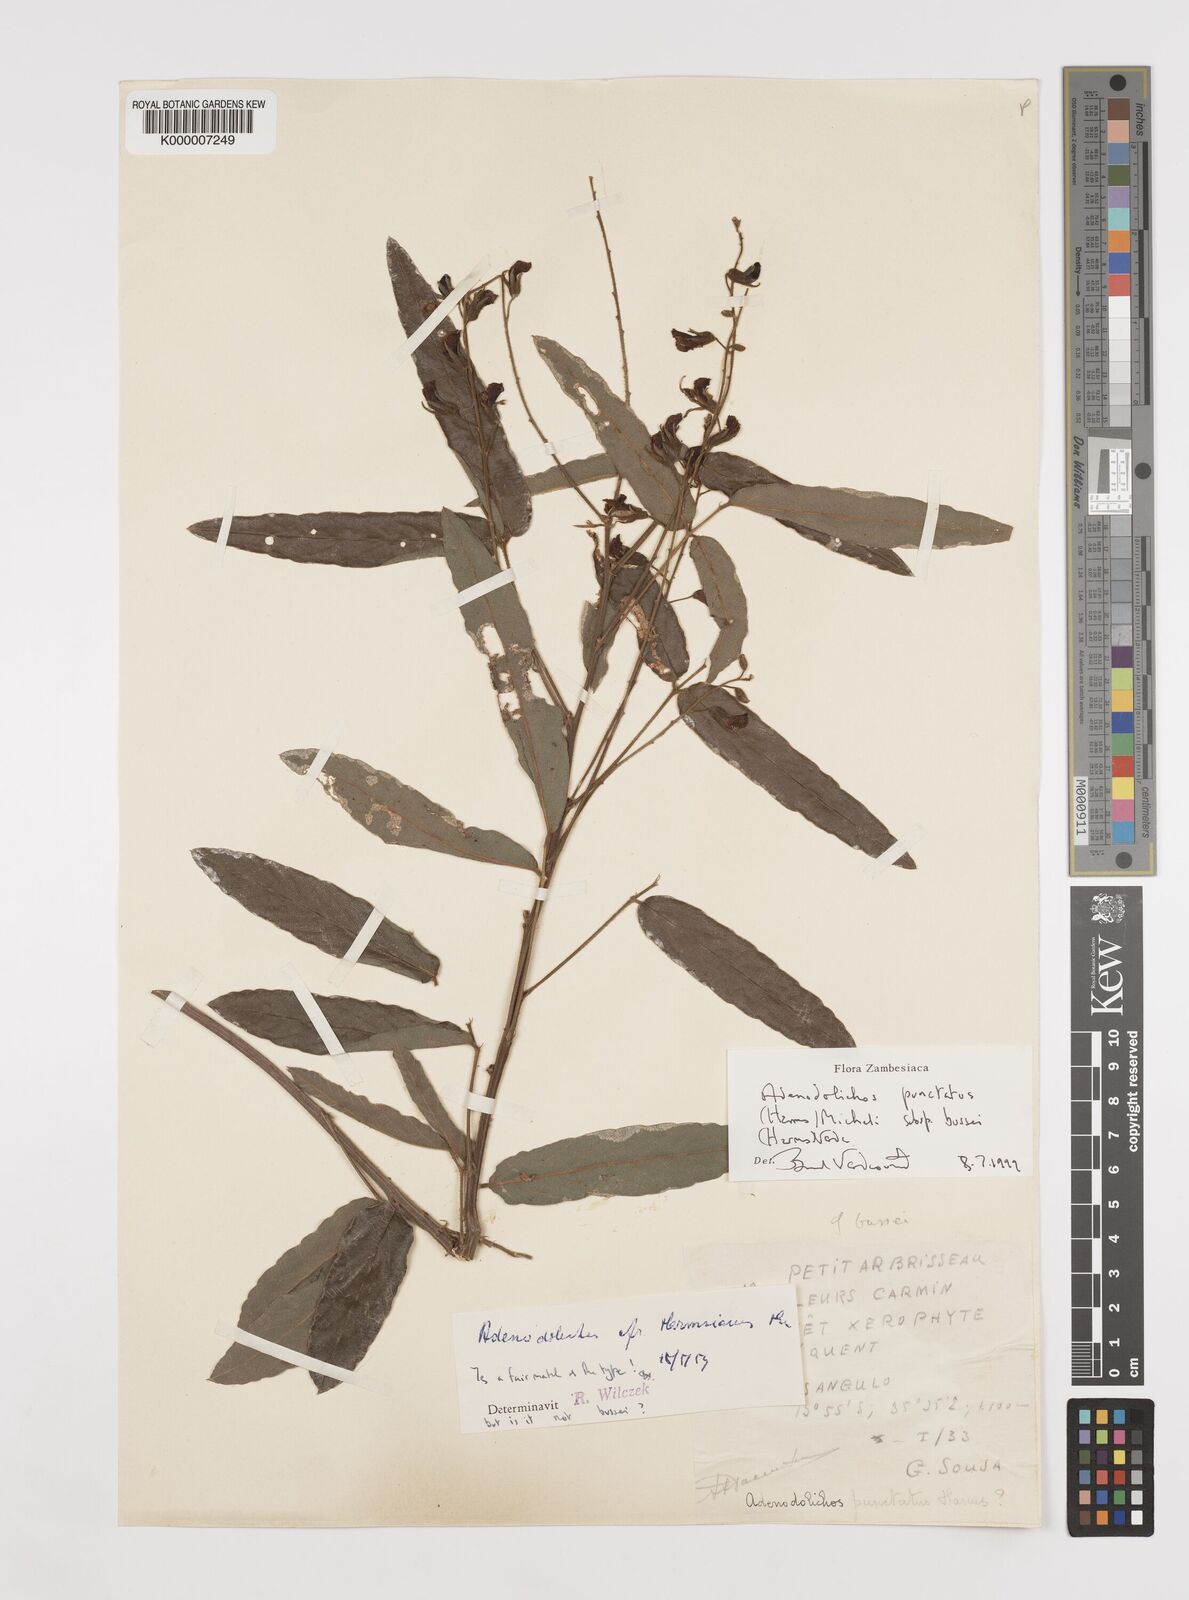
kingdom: Plantae
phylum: Tracheophyta
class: Magnoliopsida
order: Fabales
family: Fabaceae
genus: Adenodolichos
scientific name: Adenodolichos punctatus
